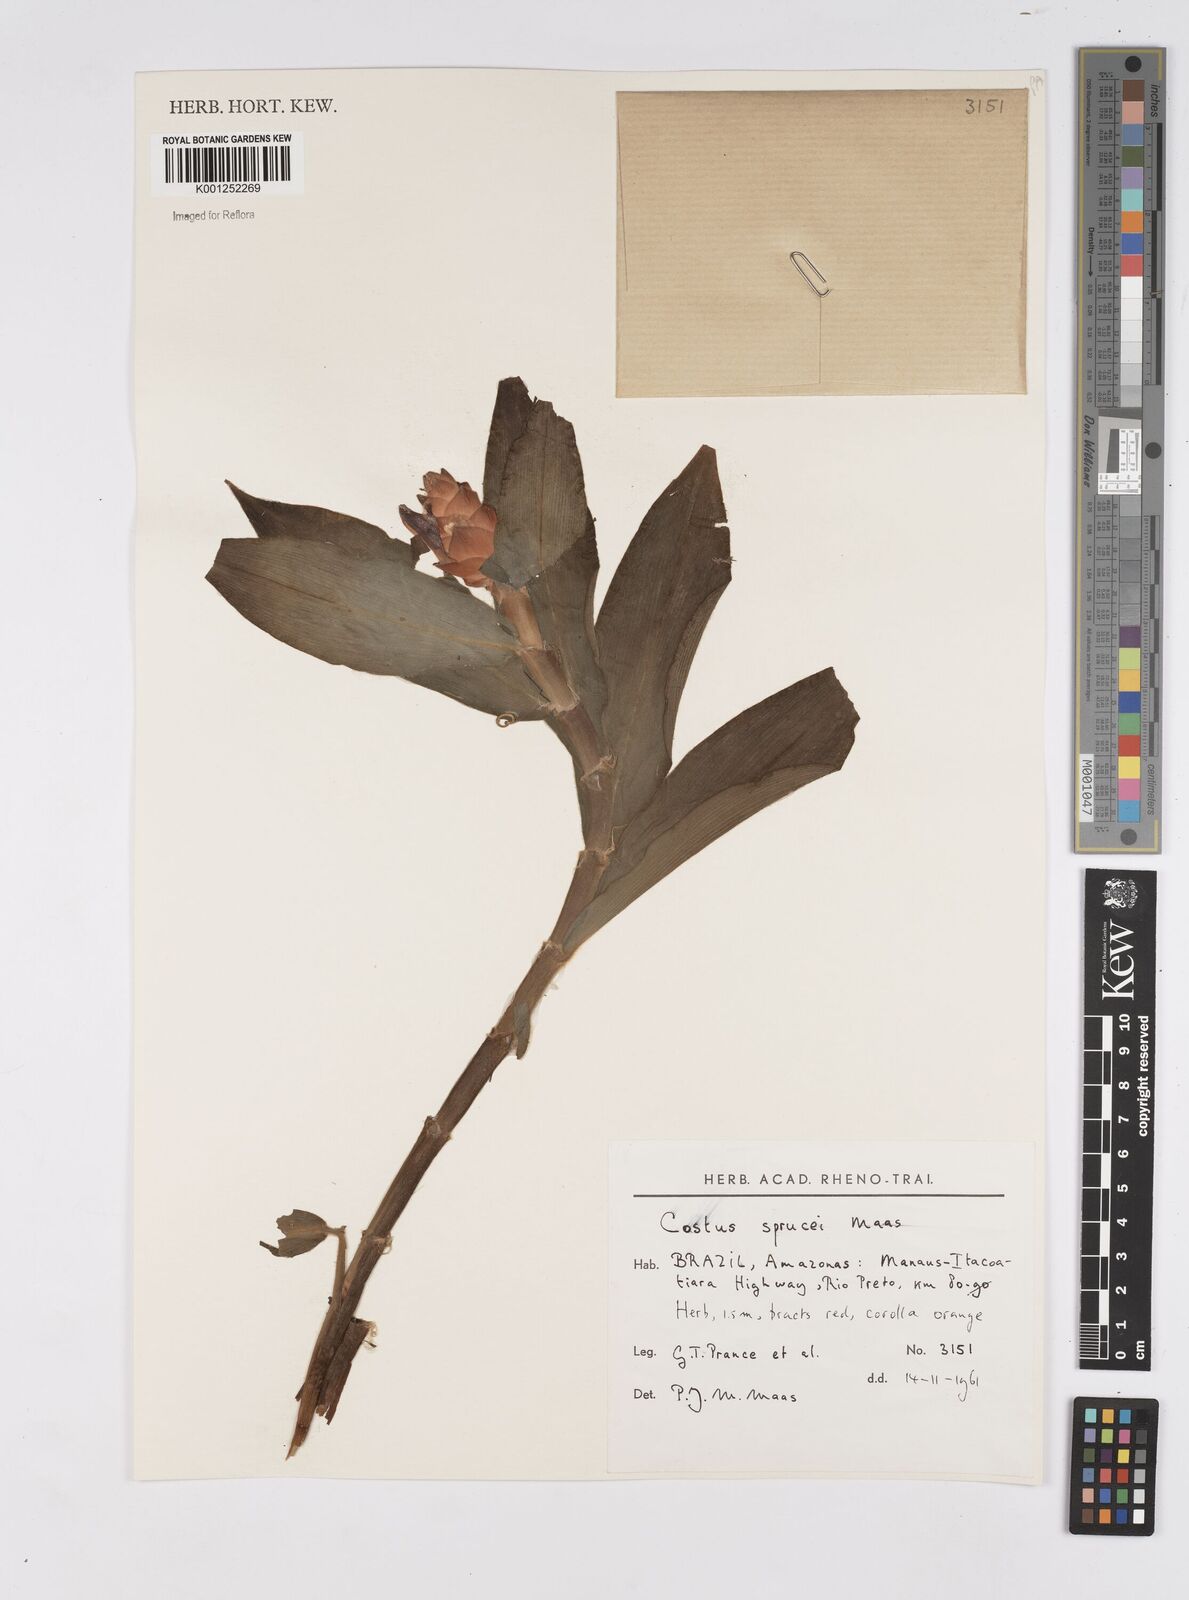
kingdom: Plantae
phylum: Tracheophyta
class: Liliopsida
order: Zingiberales
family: Costaceae
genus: Costus
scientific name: Costus sprucei
